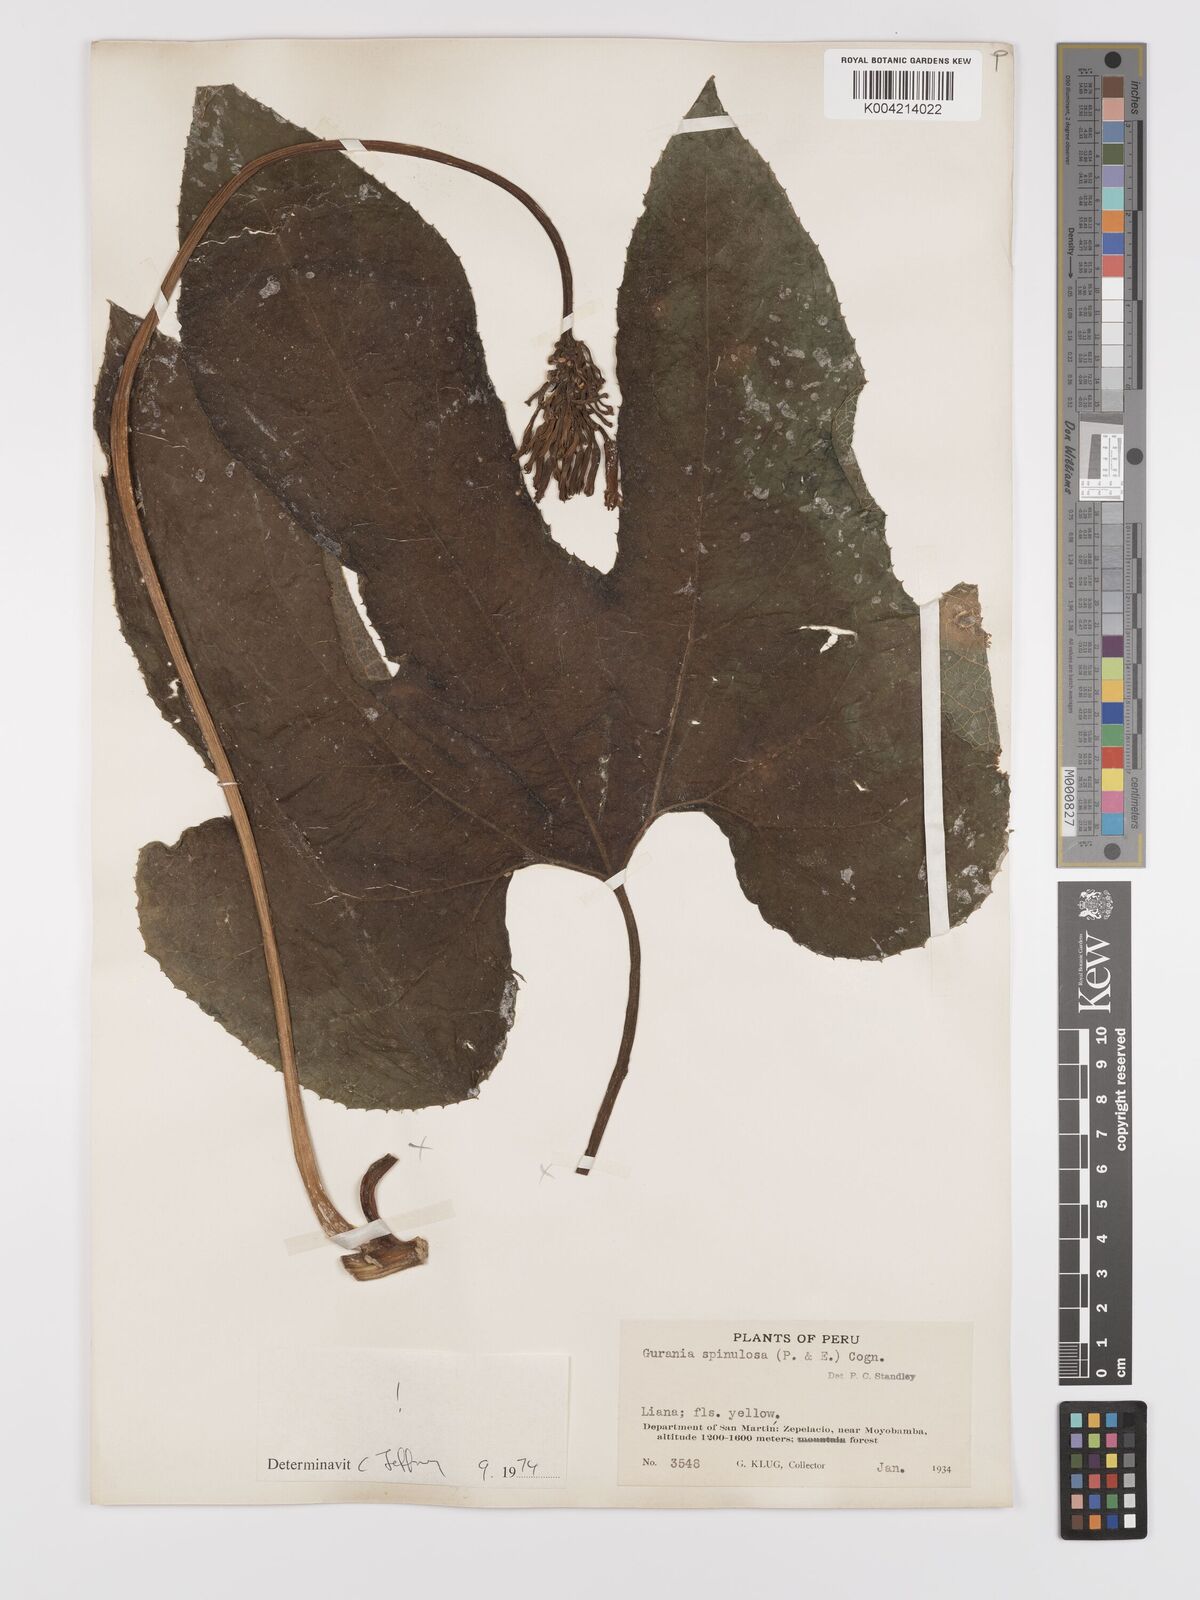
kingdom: Plantae
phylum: Tracheophyta
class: Magnoliopsida
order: Cucurbitales
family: Cucurbitaceae
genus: Gurania
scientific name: Gurania lobata
